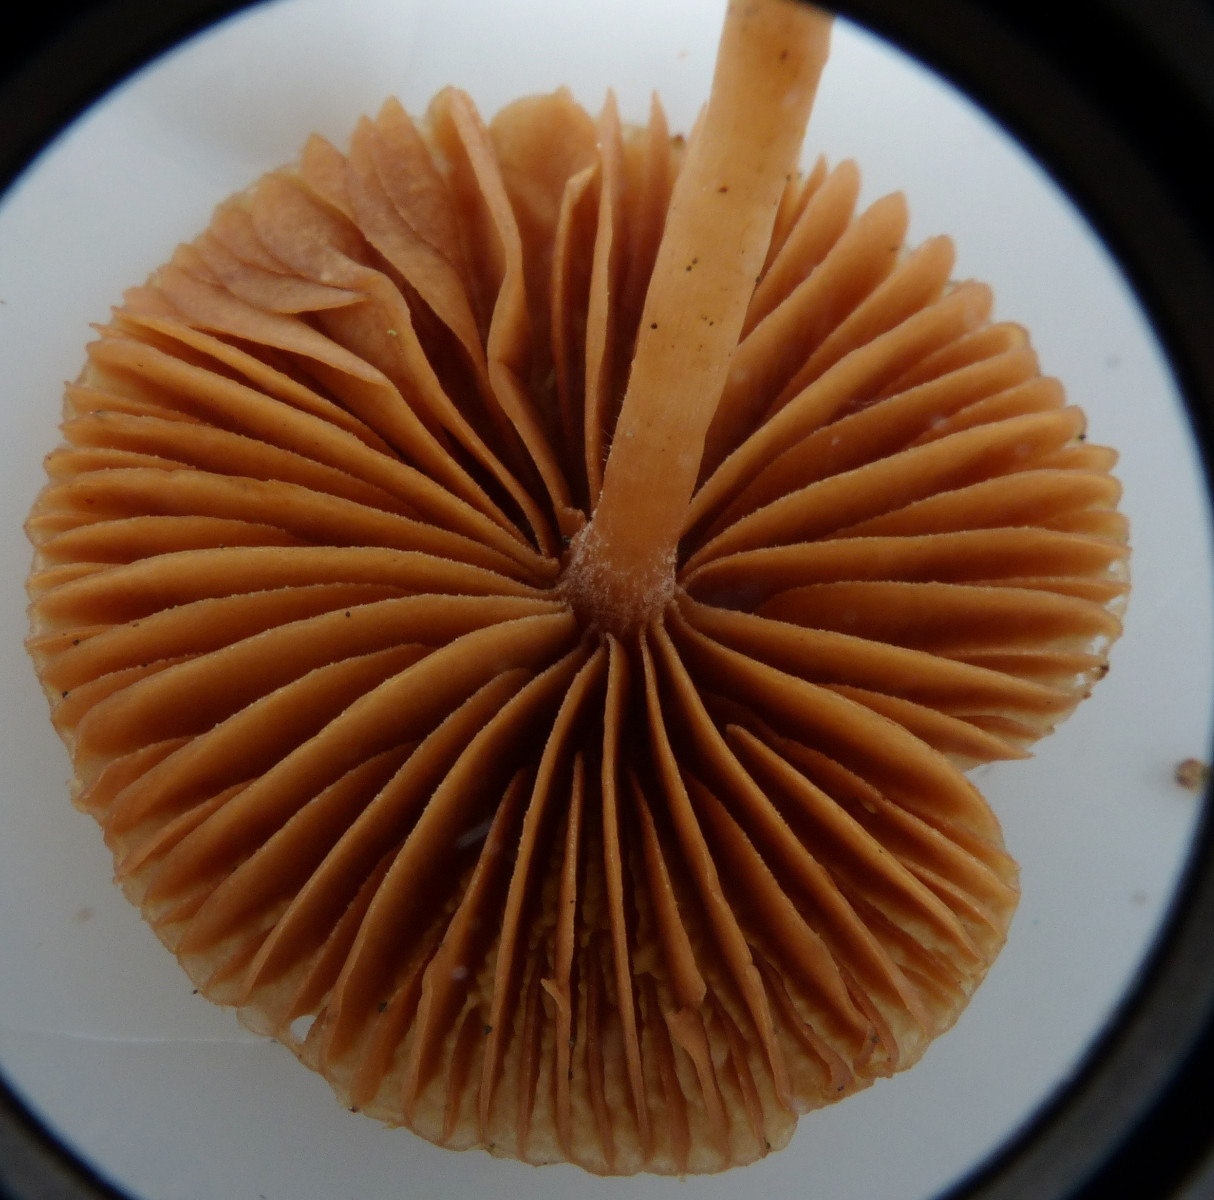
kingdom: Fungi
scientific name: Fungi
